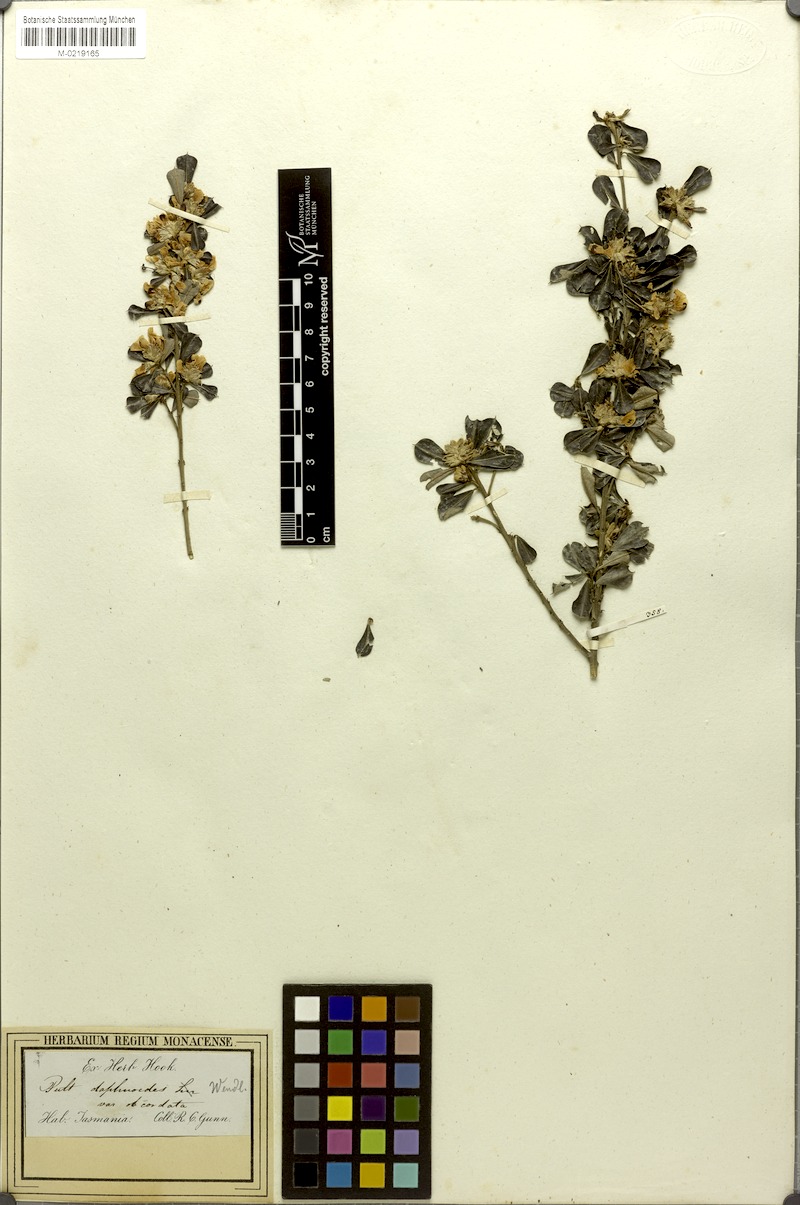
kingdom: Plantae
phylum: Tracheophyta
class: Magnoliopsida
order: Fabales
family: Fabaceae
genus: Pultenaea
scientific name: Pultenaea daphnoides
